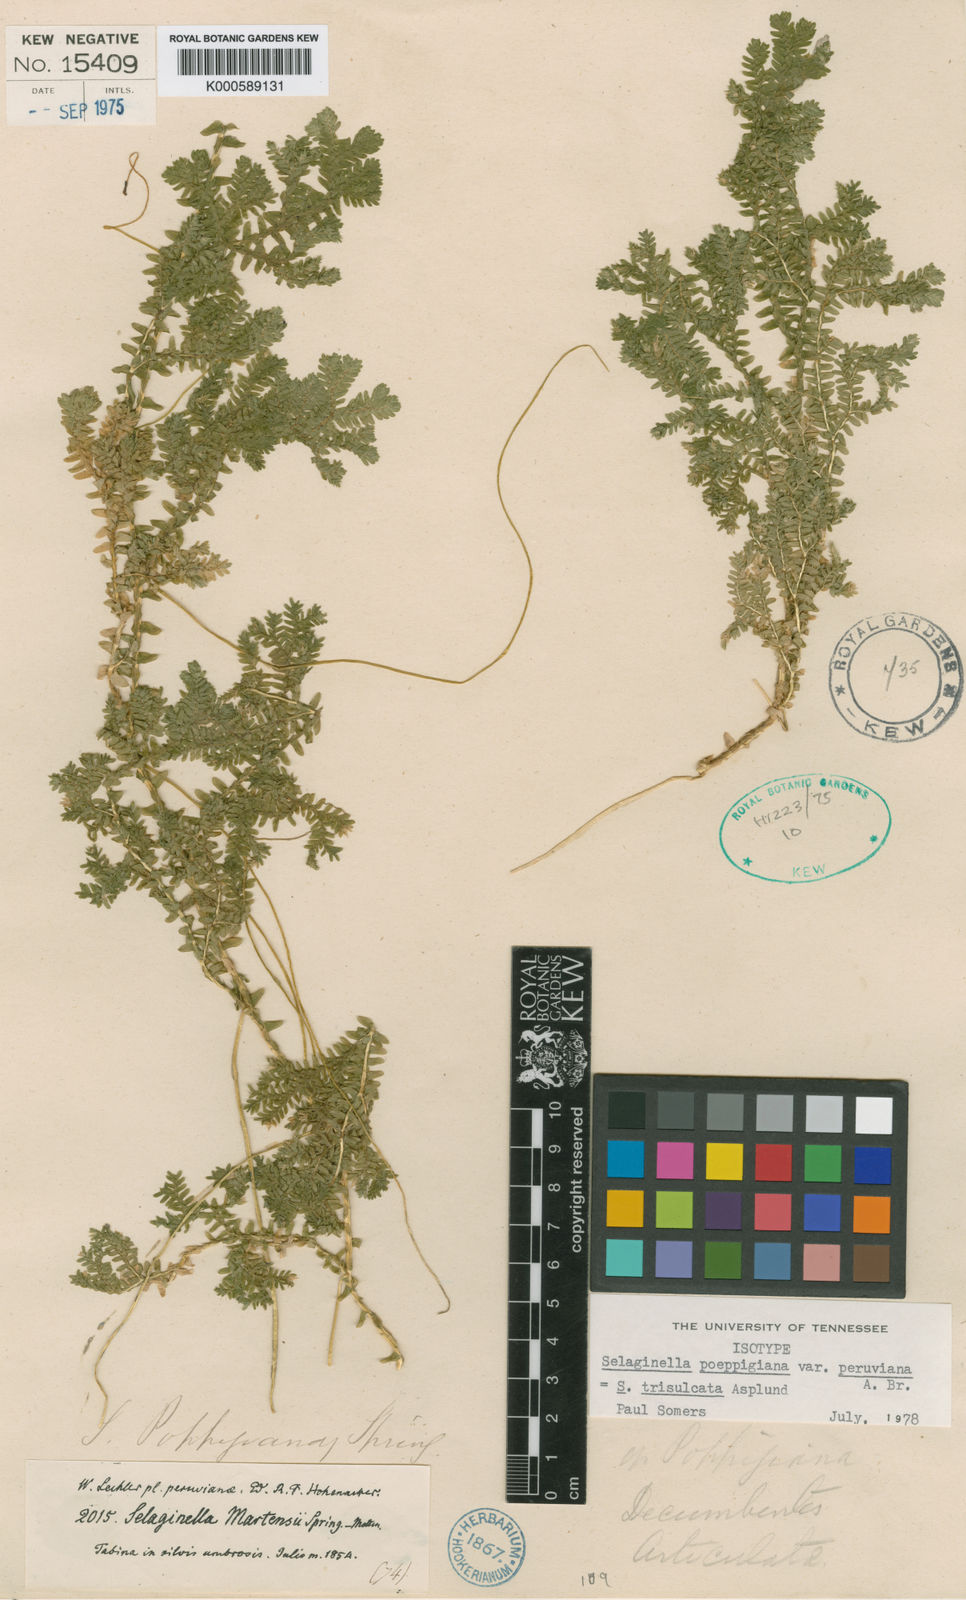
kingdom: Plantae
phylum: Tracheophyta
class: Lycopodiopsida
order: Selaginellales
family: Selaginellaceae
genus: Selaginella
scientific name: Selaginella poeppigiana
